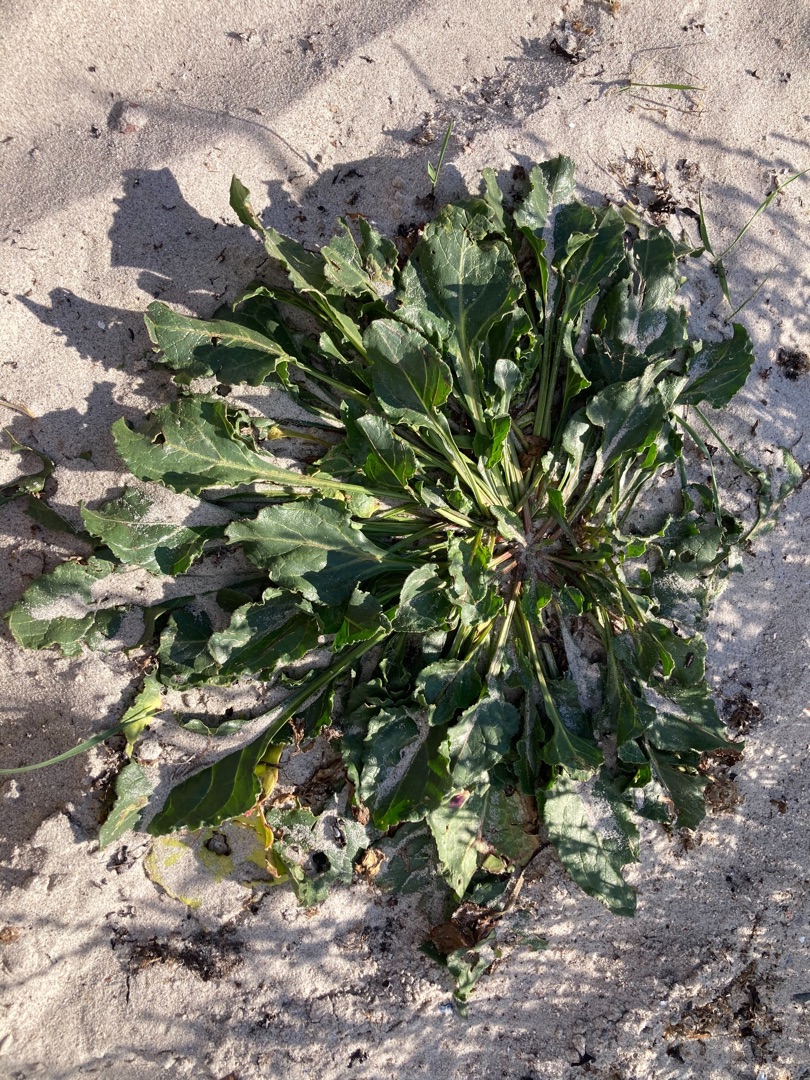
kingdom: Plantae
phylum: Tracheophyta
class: Magnoliopsida
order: Caryophyllales
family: Amaranthaceae
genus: Beta
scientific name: Beta maritima
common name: Strand-bede
